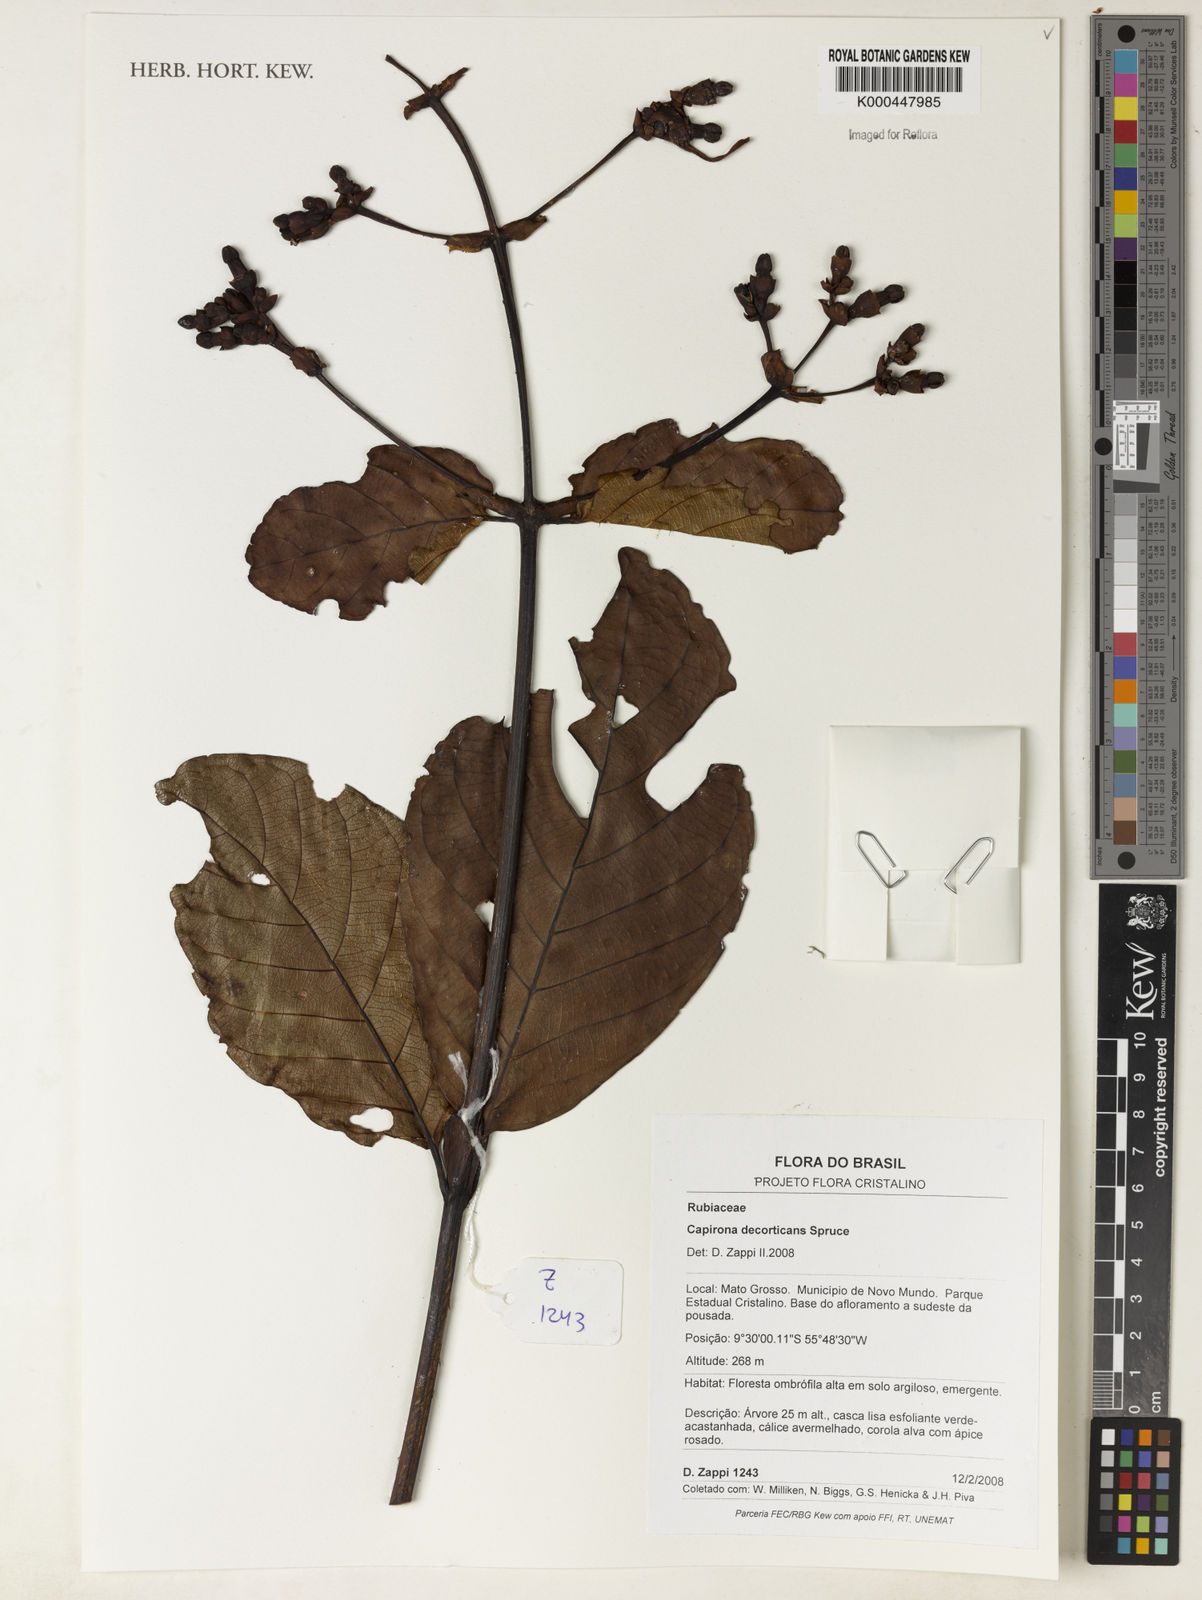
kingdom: Plantae
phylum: Tracheophyta
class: Magnoliopsida
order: Gentianales
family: Rubiaceae
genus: Capirona
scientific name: Capirona macrophylla
